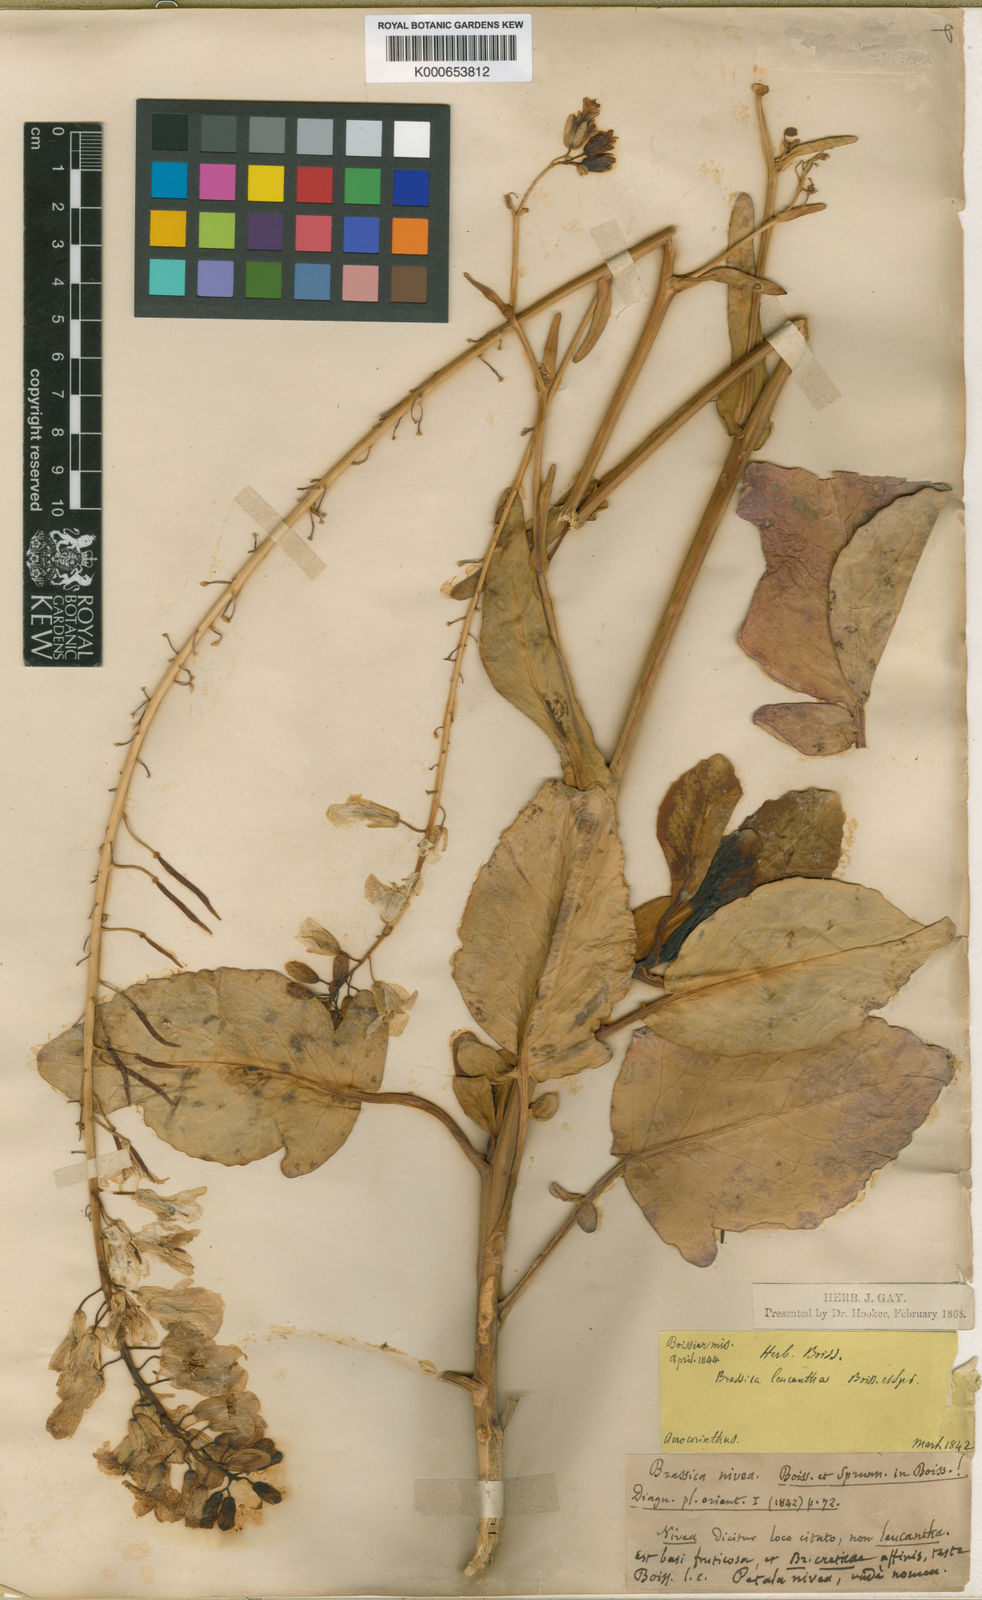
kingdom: Plantae
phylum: Tracheophyta
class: Magnoliopsida
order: Brassicales
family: Brassicaceae
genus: Brassica
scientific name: Brassica cretica
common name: Mustard
